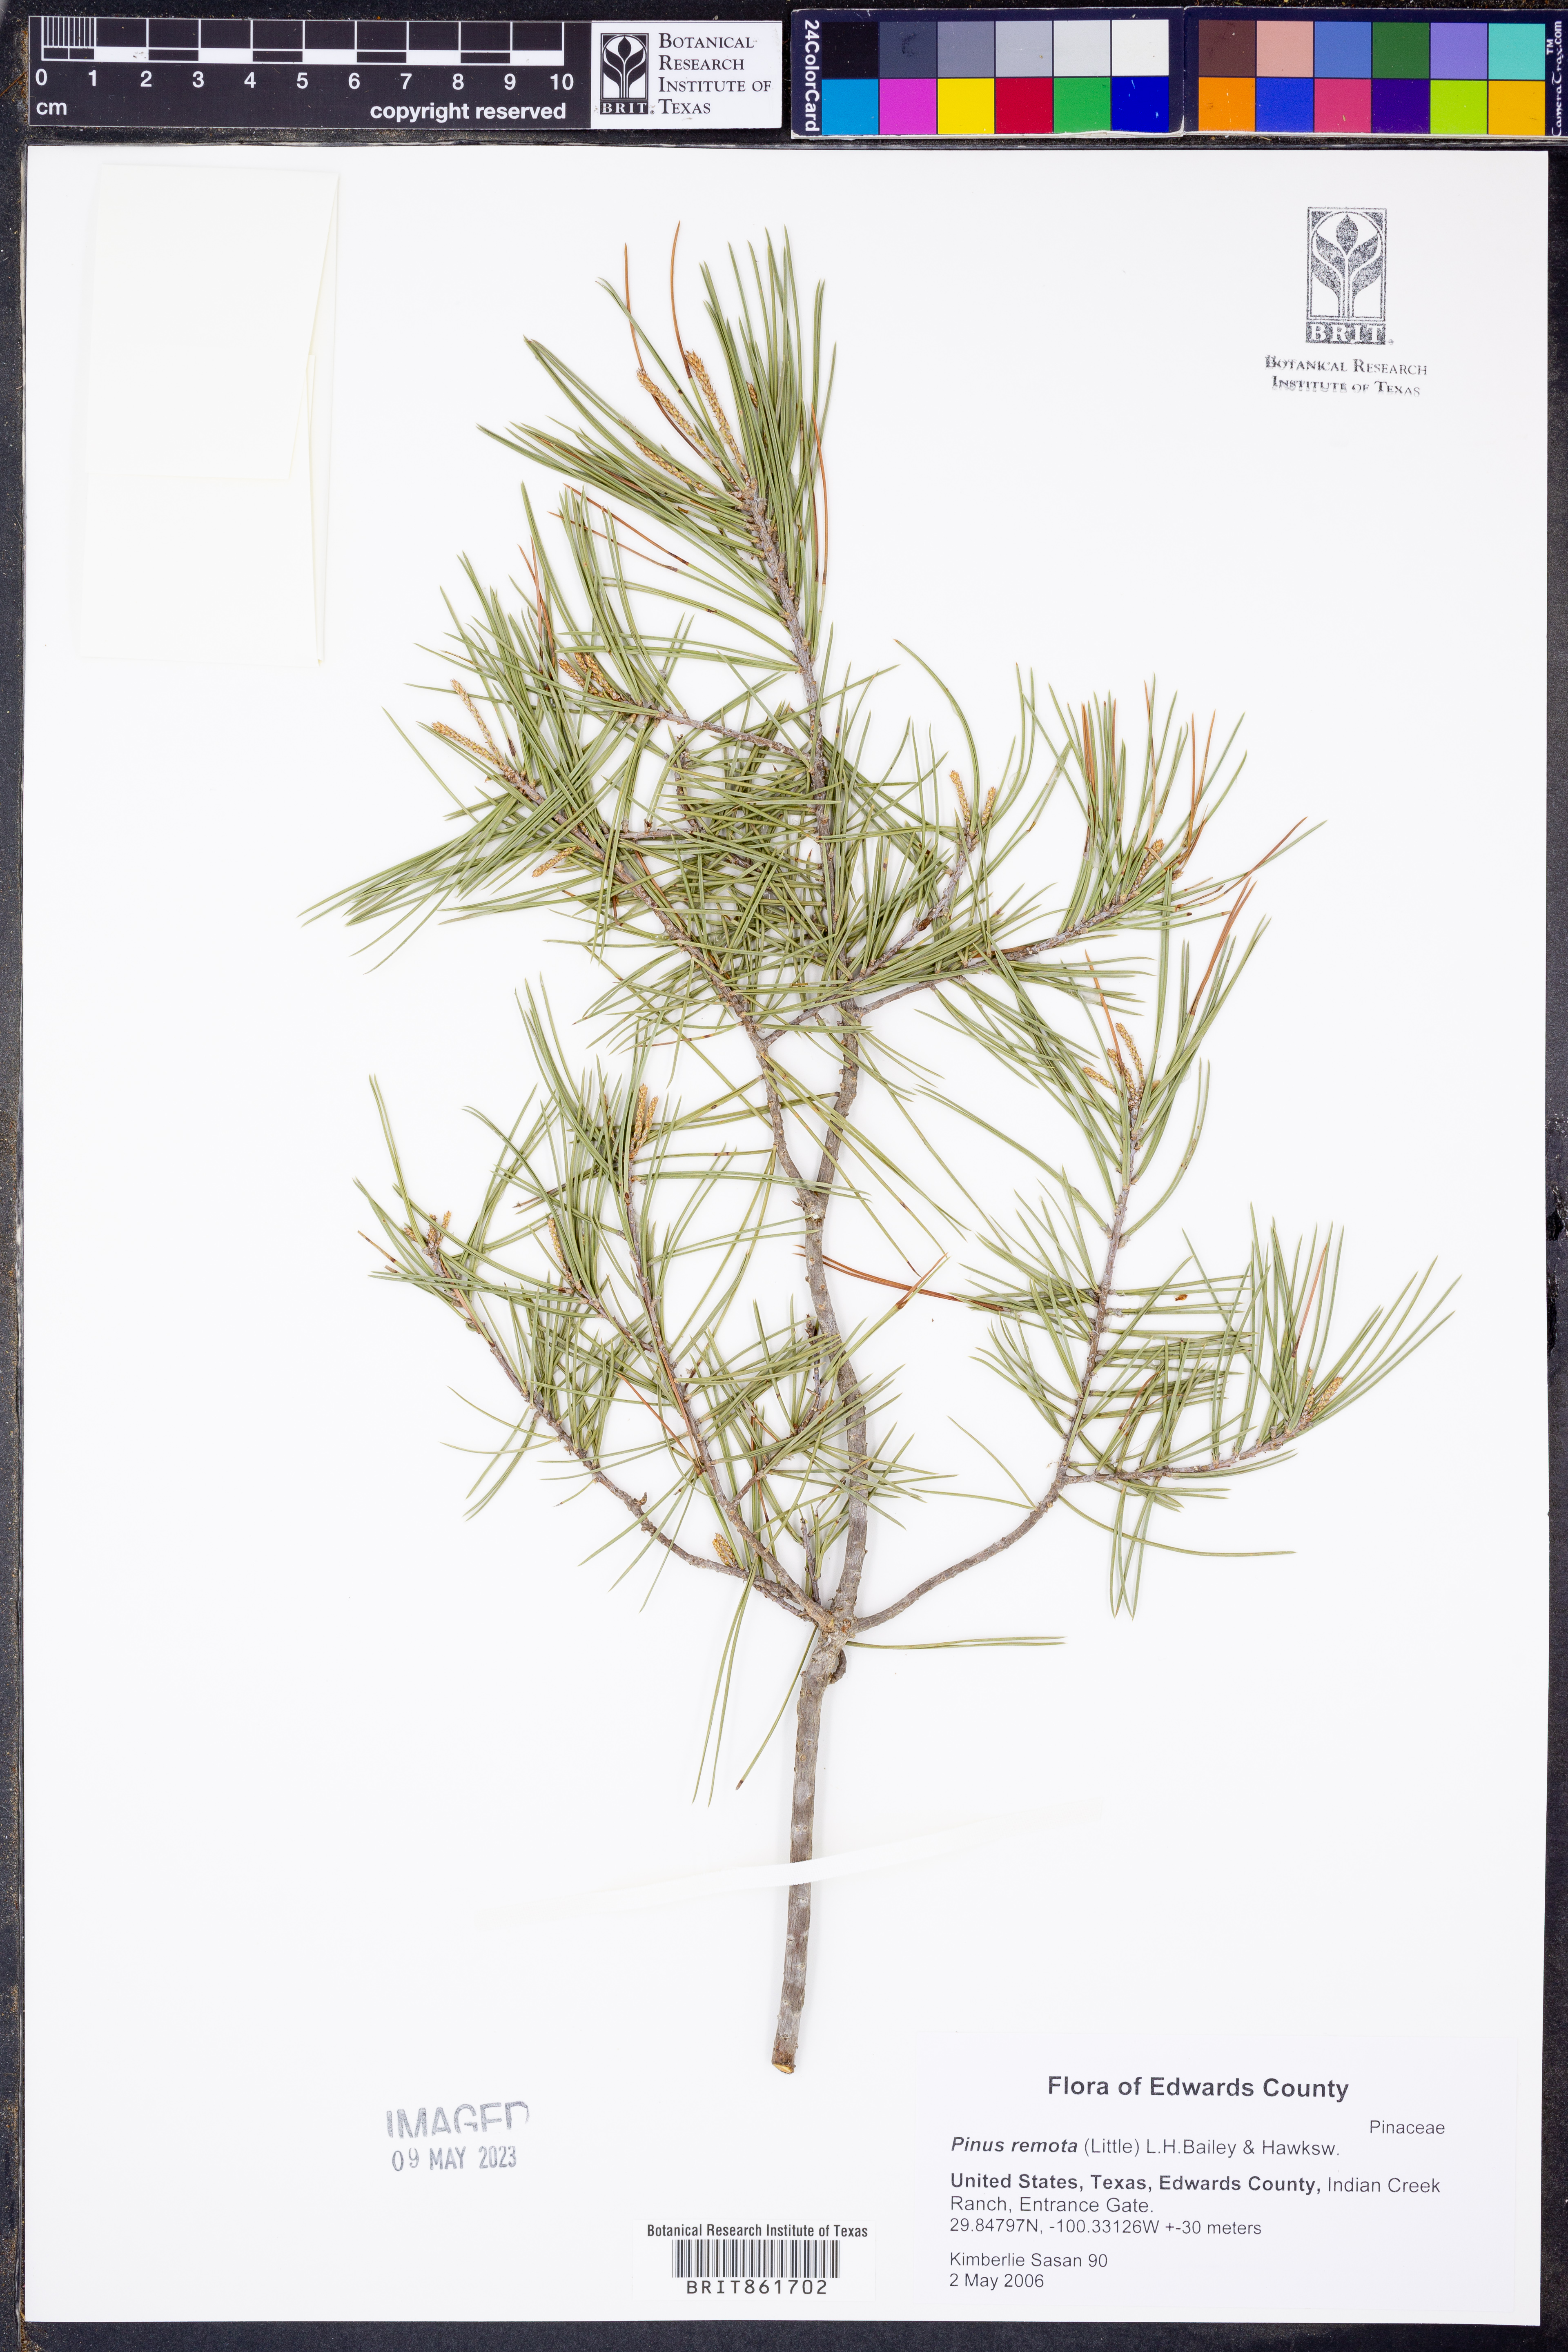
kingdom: Plantae
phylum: Tracheophyta
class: Pinopsida
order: Pinales
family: Pinaceae
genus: Pinus
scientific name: Pinus remota
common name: Nut pine
